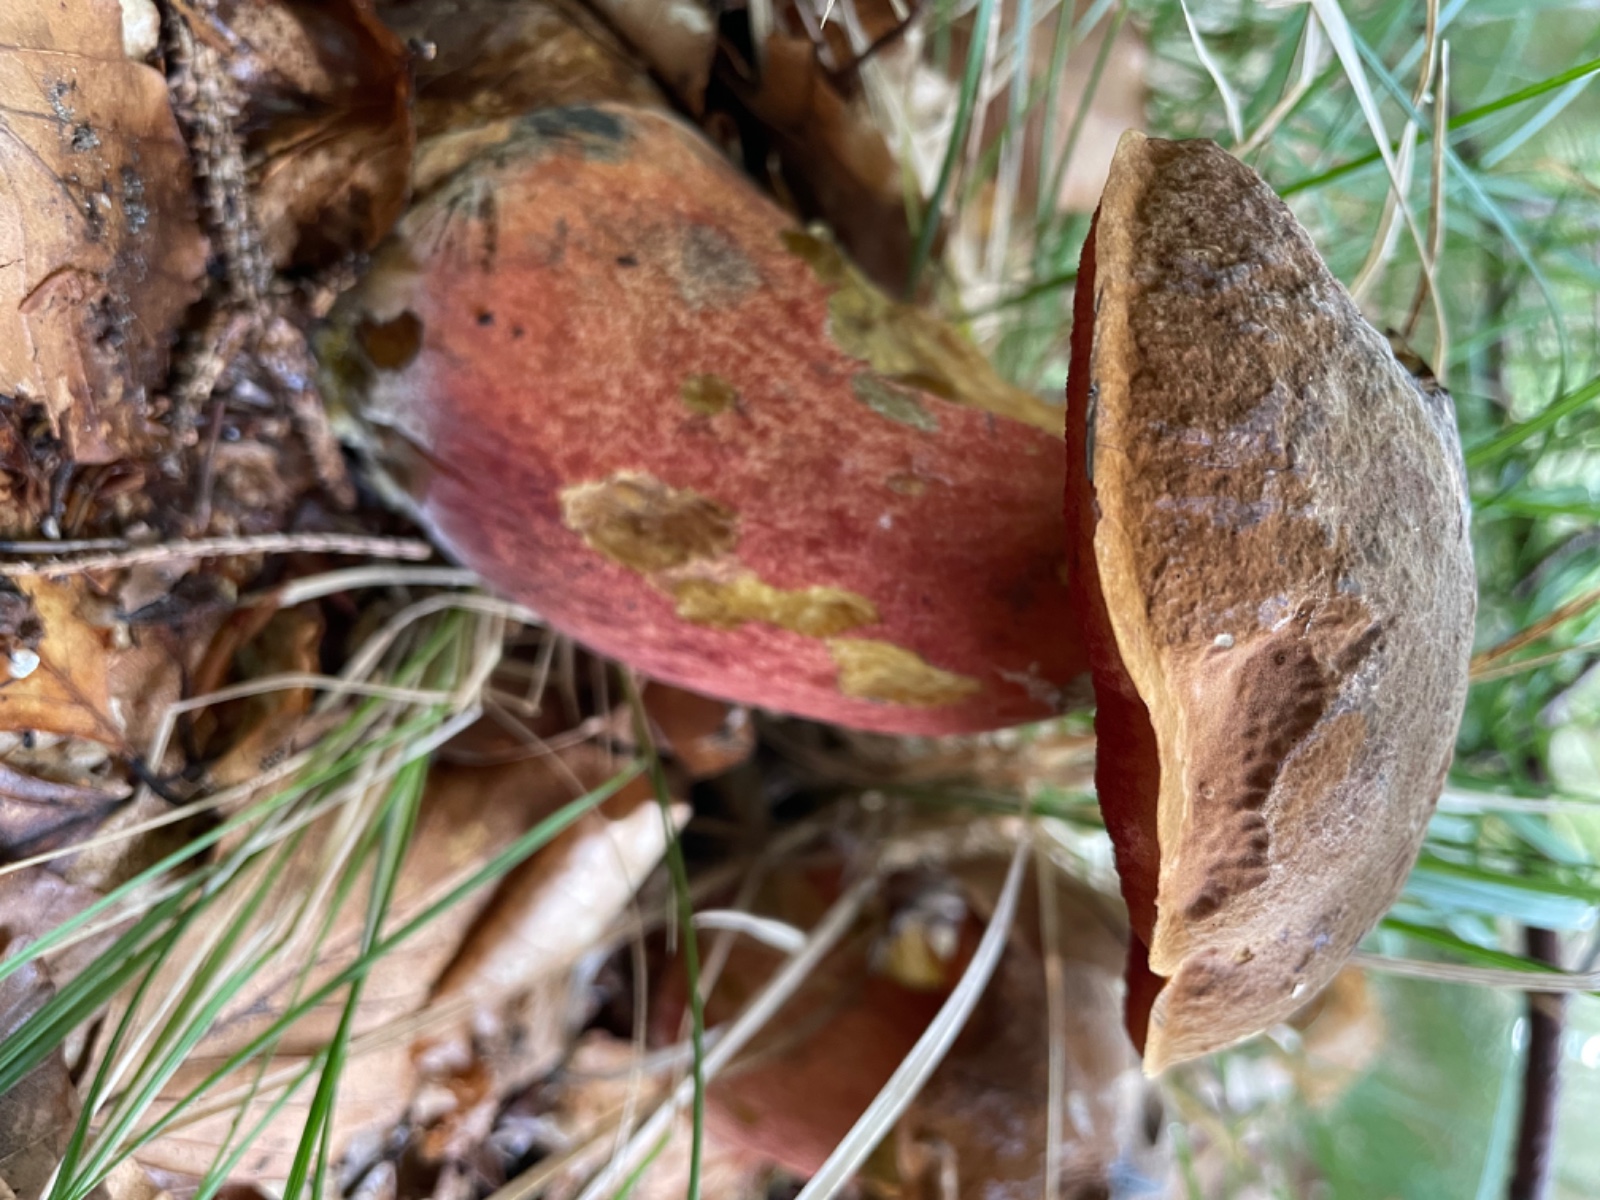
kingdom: Fungi
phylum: Basidiomycota
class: Agaricomycetes
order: Boletales
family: Boletaceae
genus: Neoboletus
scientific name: Neoboletus erythropus
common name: punktstokket indigorørhat
